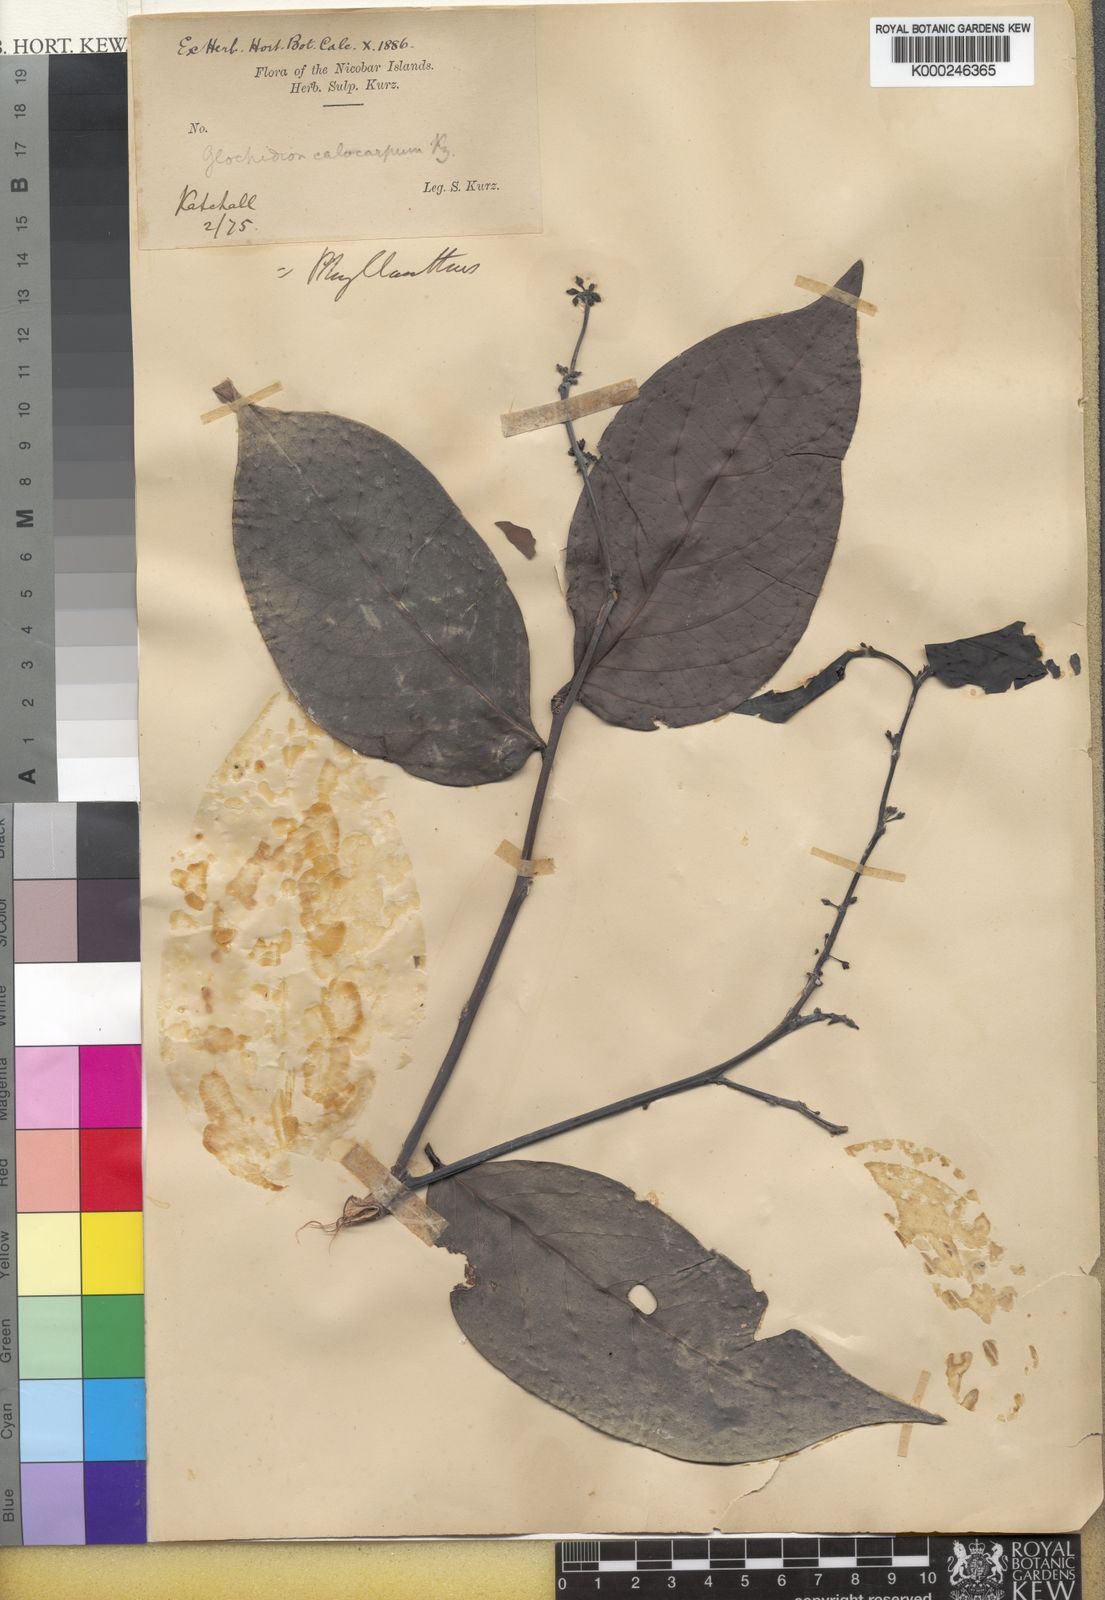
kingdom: Plantae
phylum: Tracheophyta
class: Magnoliopsida
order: Malpighiales
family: Phyllanthaceae
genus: Glochidion
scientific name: Glochidion calocarpum
